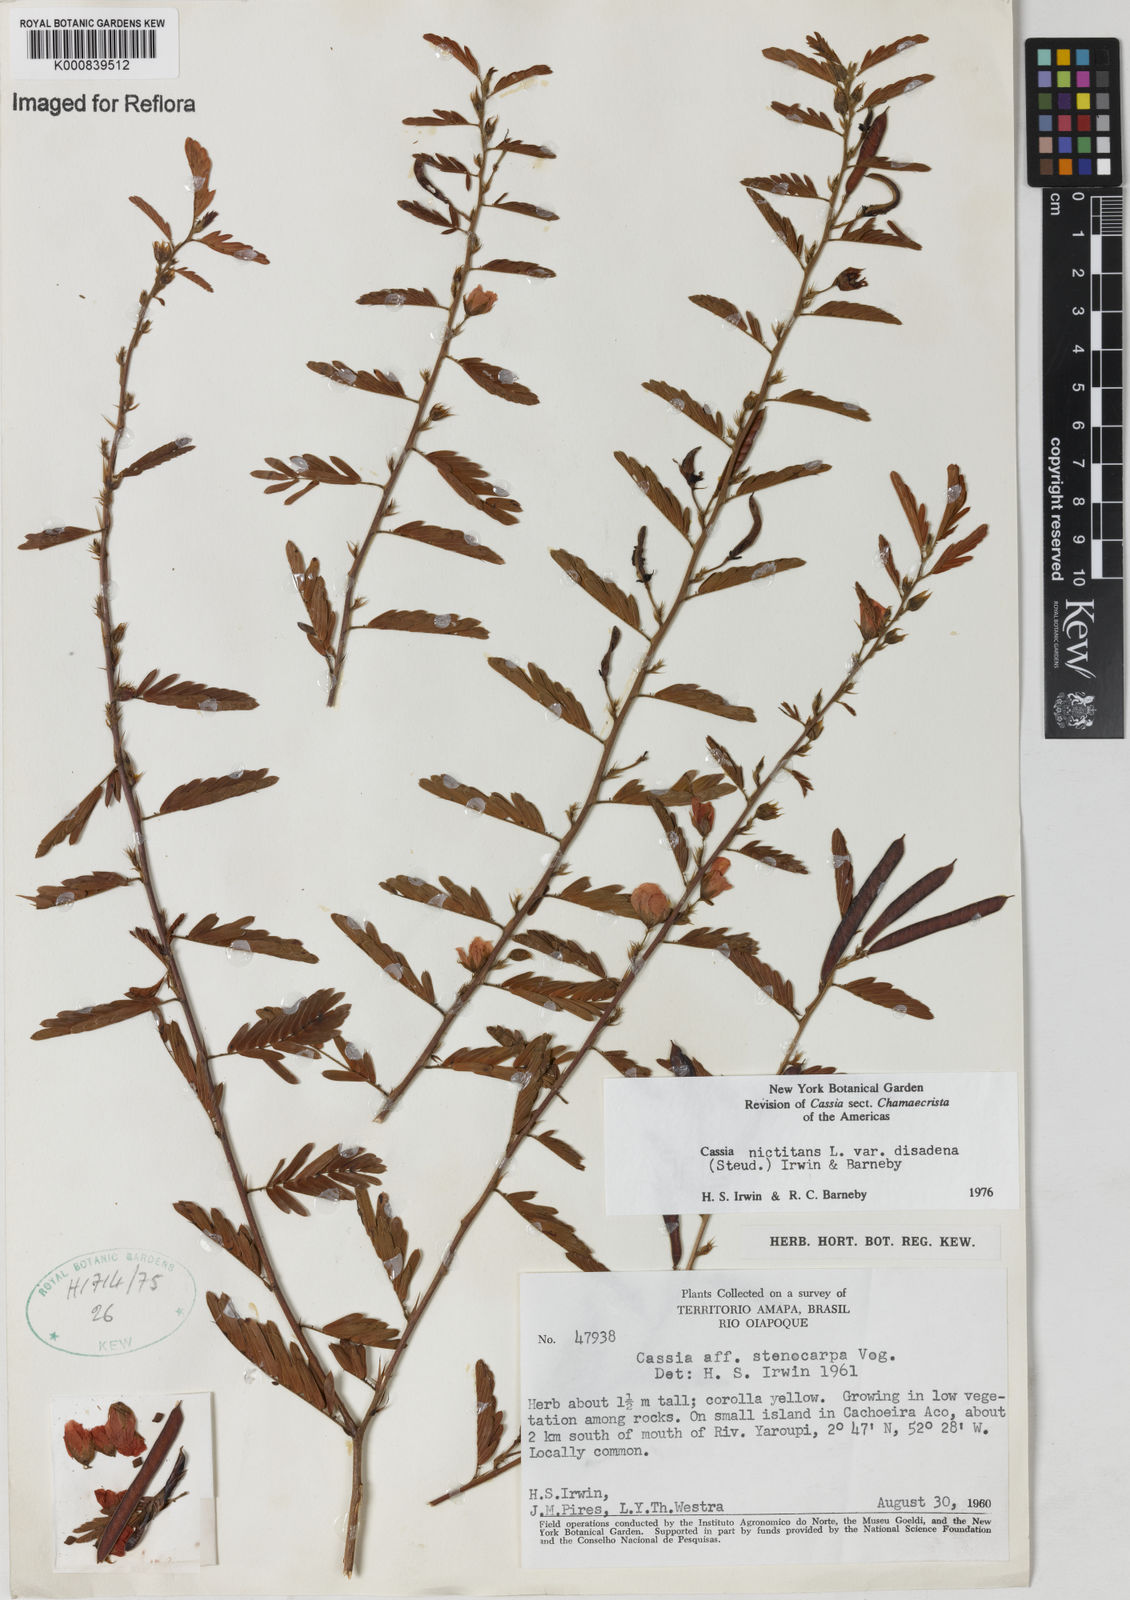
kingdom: Plantae
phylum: Tracheophyta
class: Magnoliopsida
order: Fabales
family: Fabaceae
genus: Chamaecrista
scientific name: Chamaecrista nictitans
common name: Sensitive cassia
